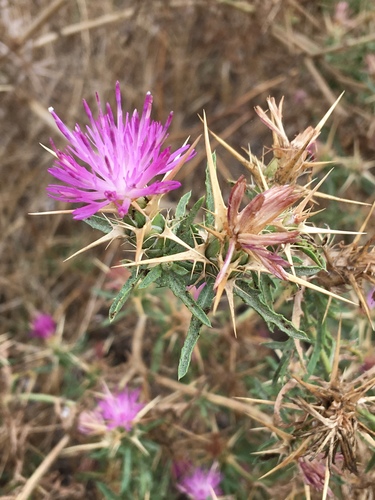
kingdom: Plantae
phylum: Tracheophyta
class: Magnoliopsida
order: Asterales
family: Asteraceae
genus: Centaurea
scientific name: Centaurea calcitrapa
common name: Red star-thistle
